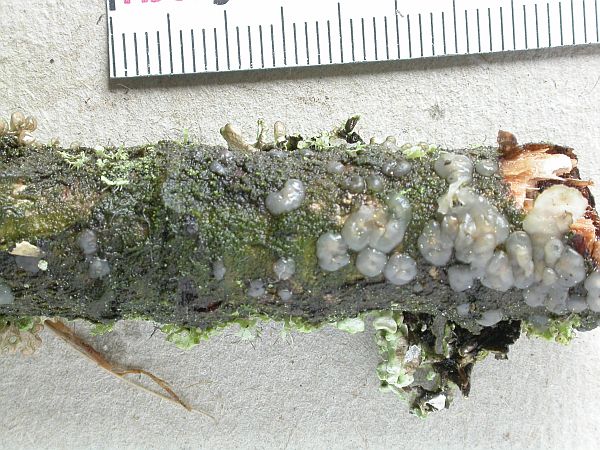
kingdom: Fungi
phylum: Basidiomycota
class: Agaricomycetes
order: Auriculariales
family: Hyaloriaceae
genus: Myxarium
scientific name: Myxarium nucleatum
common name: klar bævretop
